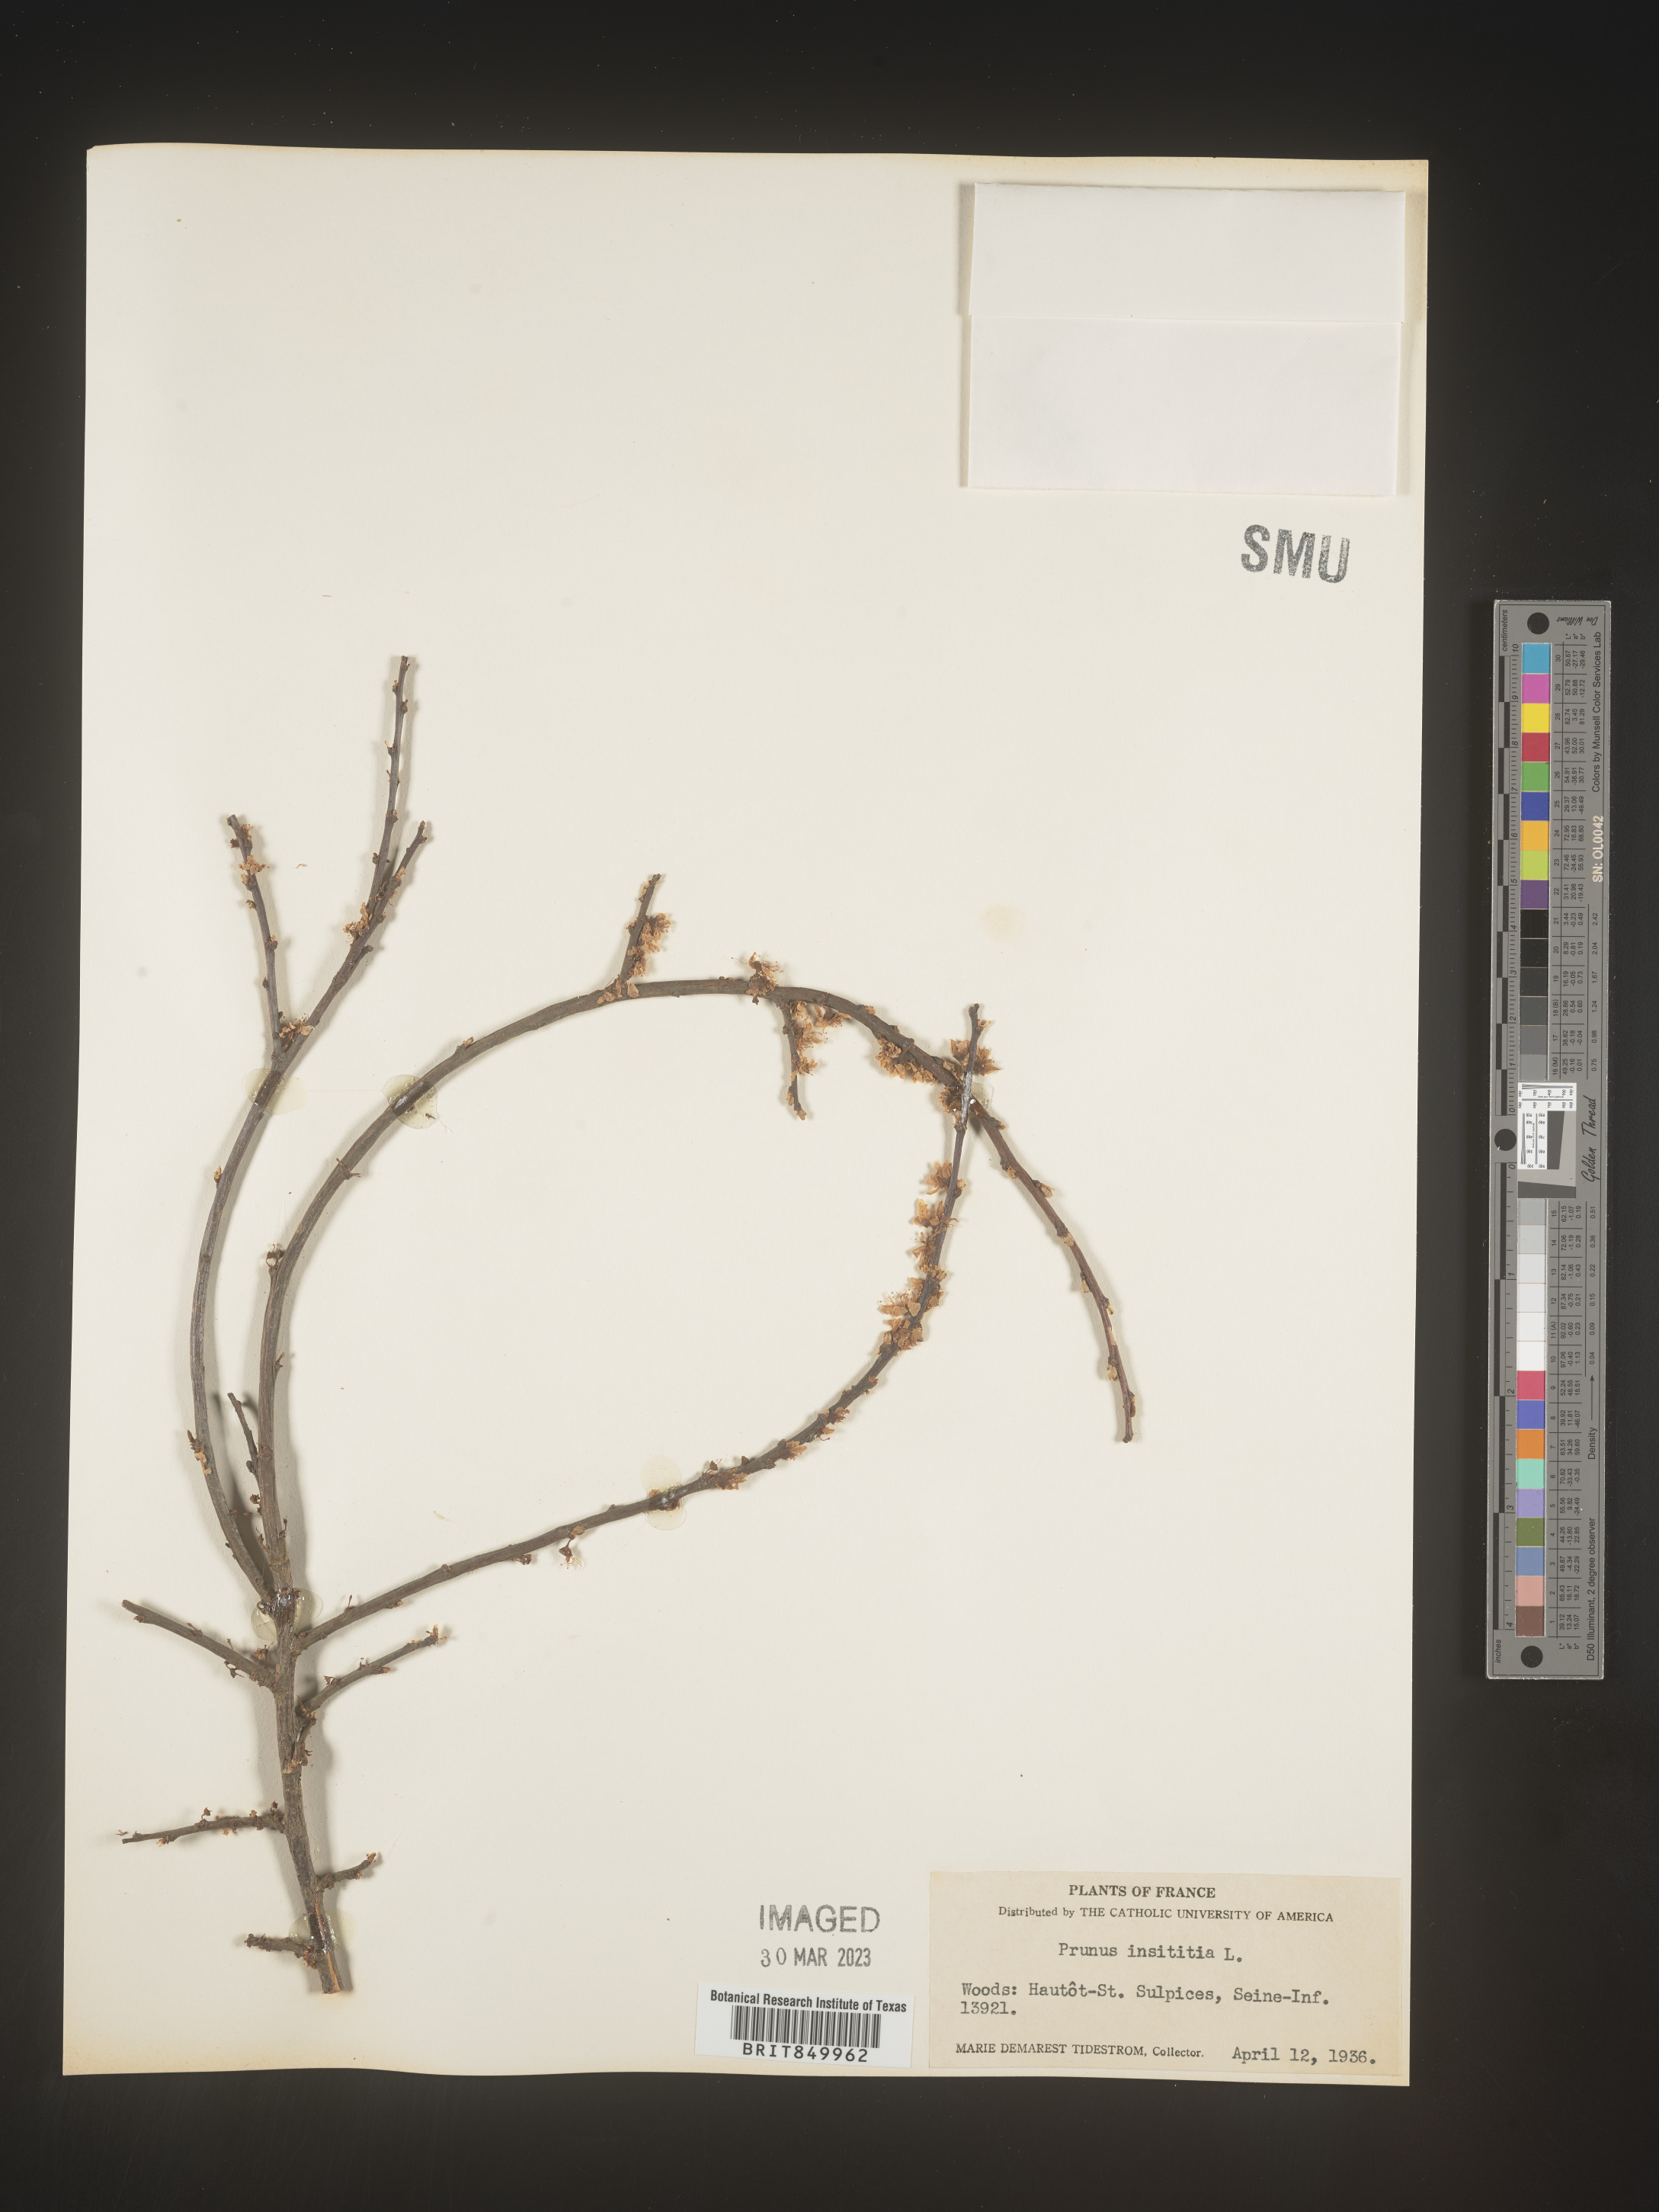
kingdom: Plantae
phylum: Tracheophyta
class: Magnoliopsida
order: Rosales
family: Rosaceae
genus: Prunus
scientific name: Prunus
